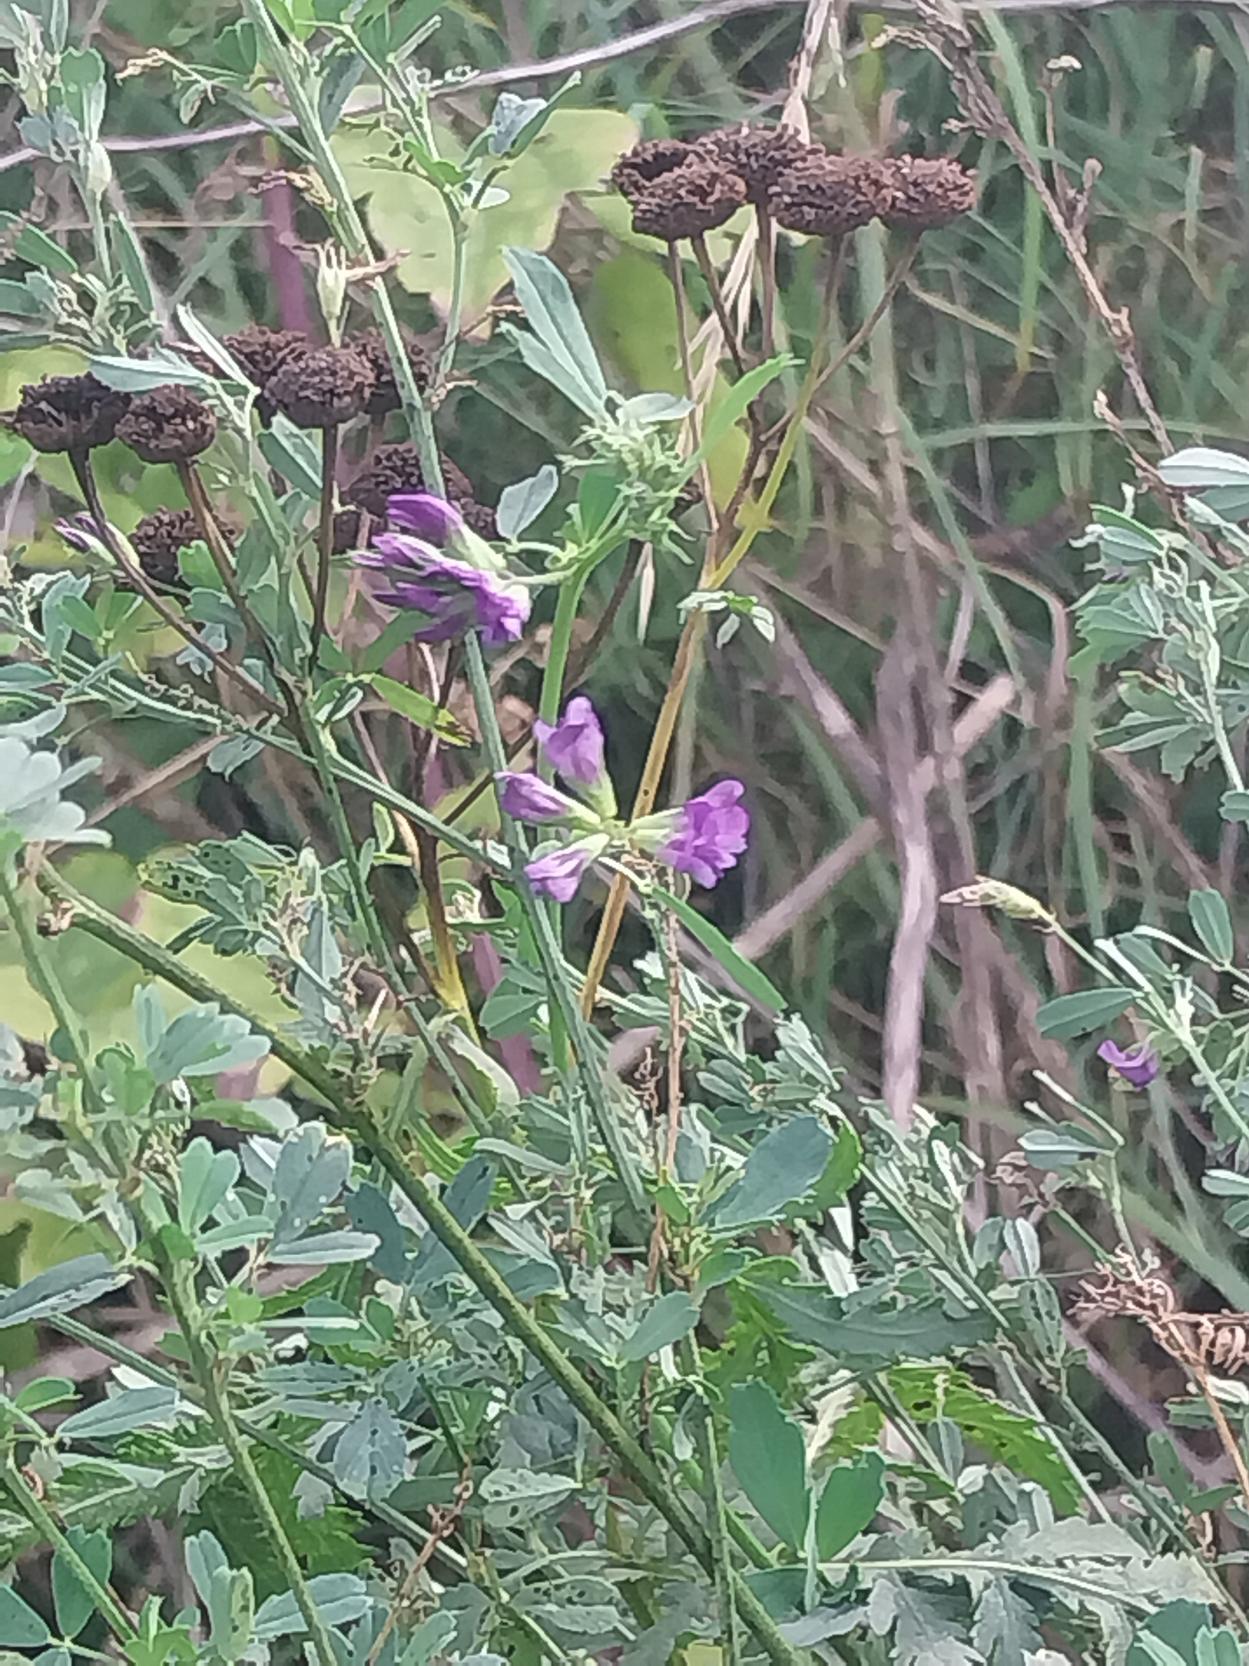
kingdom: Plantae
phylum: Tracheophyta
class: Magnoliopsida
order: Fabales
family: Fabaceae
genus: Medicago
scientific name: Medicago sativa
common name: Lucerne
